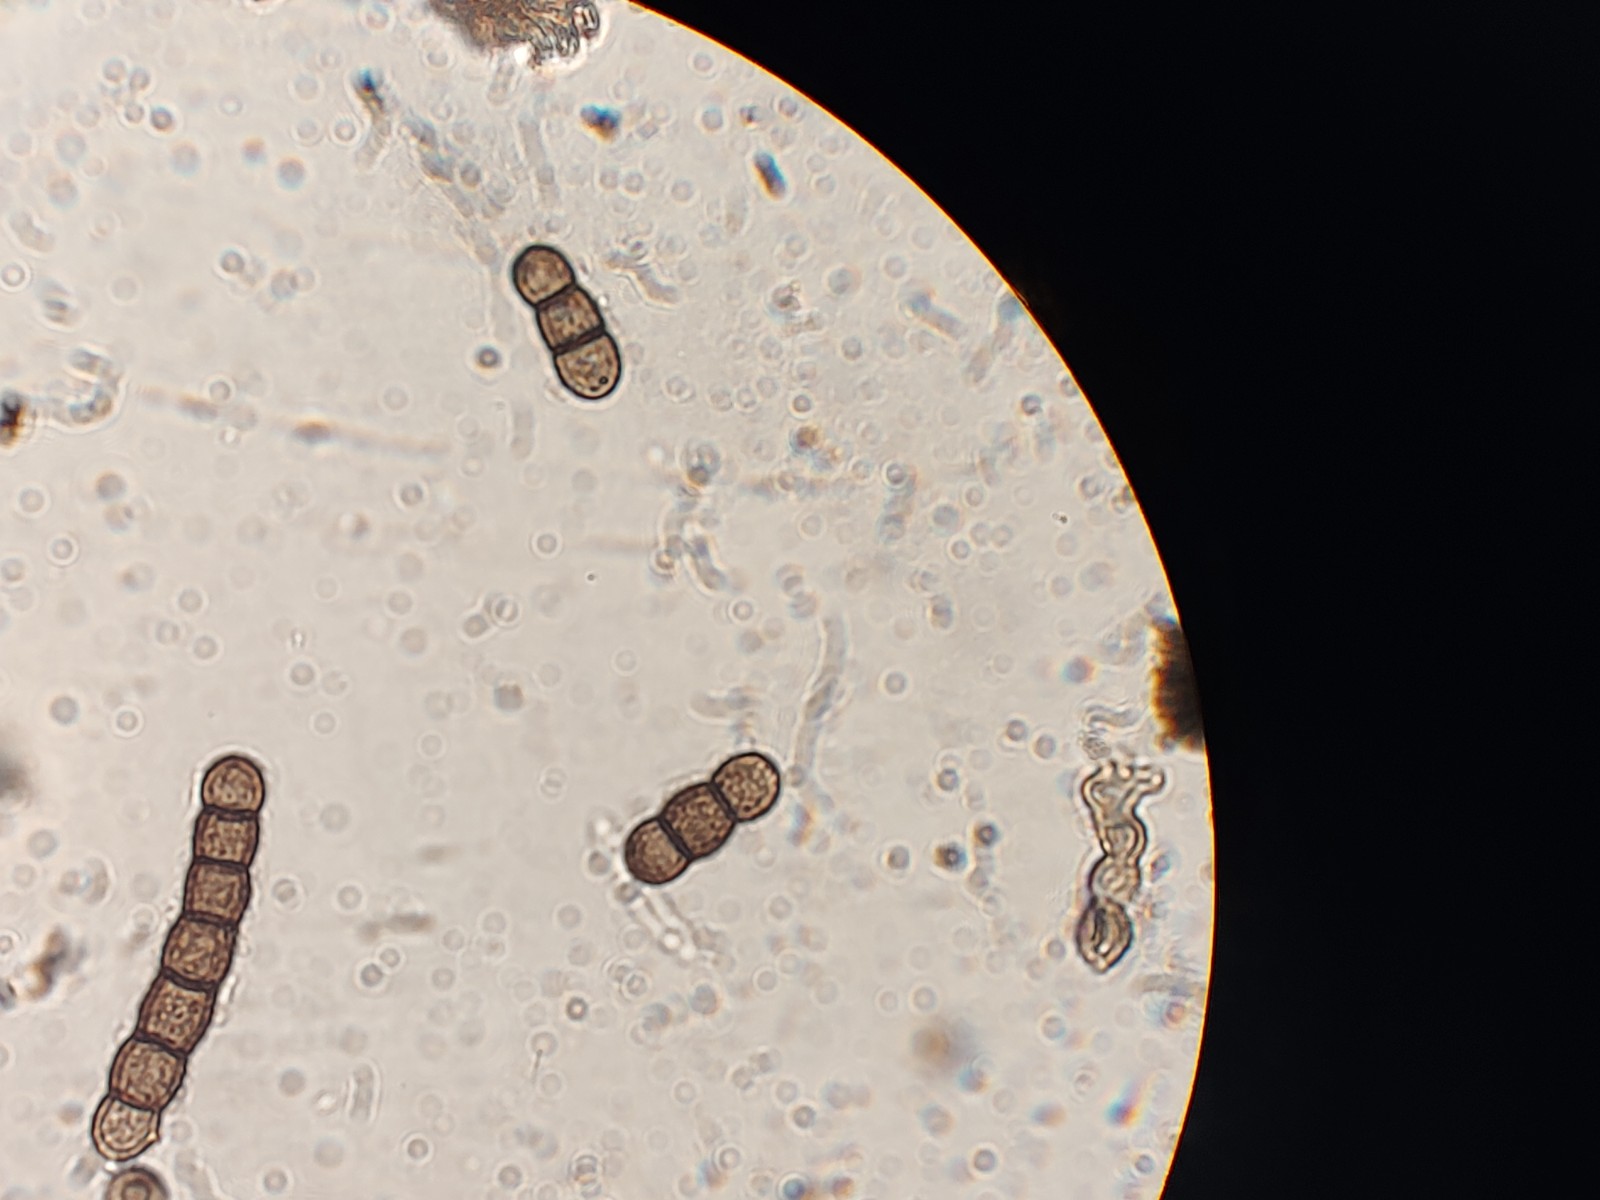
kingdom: Fungi
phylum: Ascomycota
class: Dothideomycetes
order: Pleosporales
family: Torulaceae
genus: Torula
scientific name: Torula herbarum
